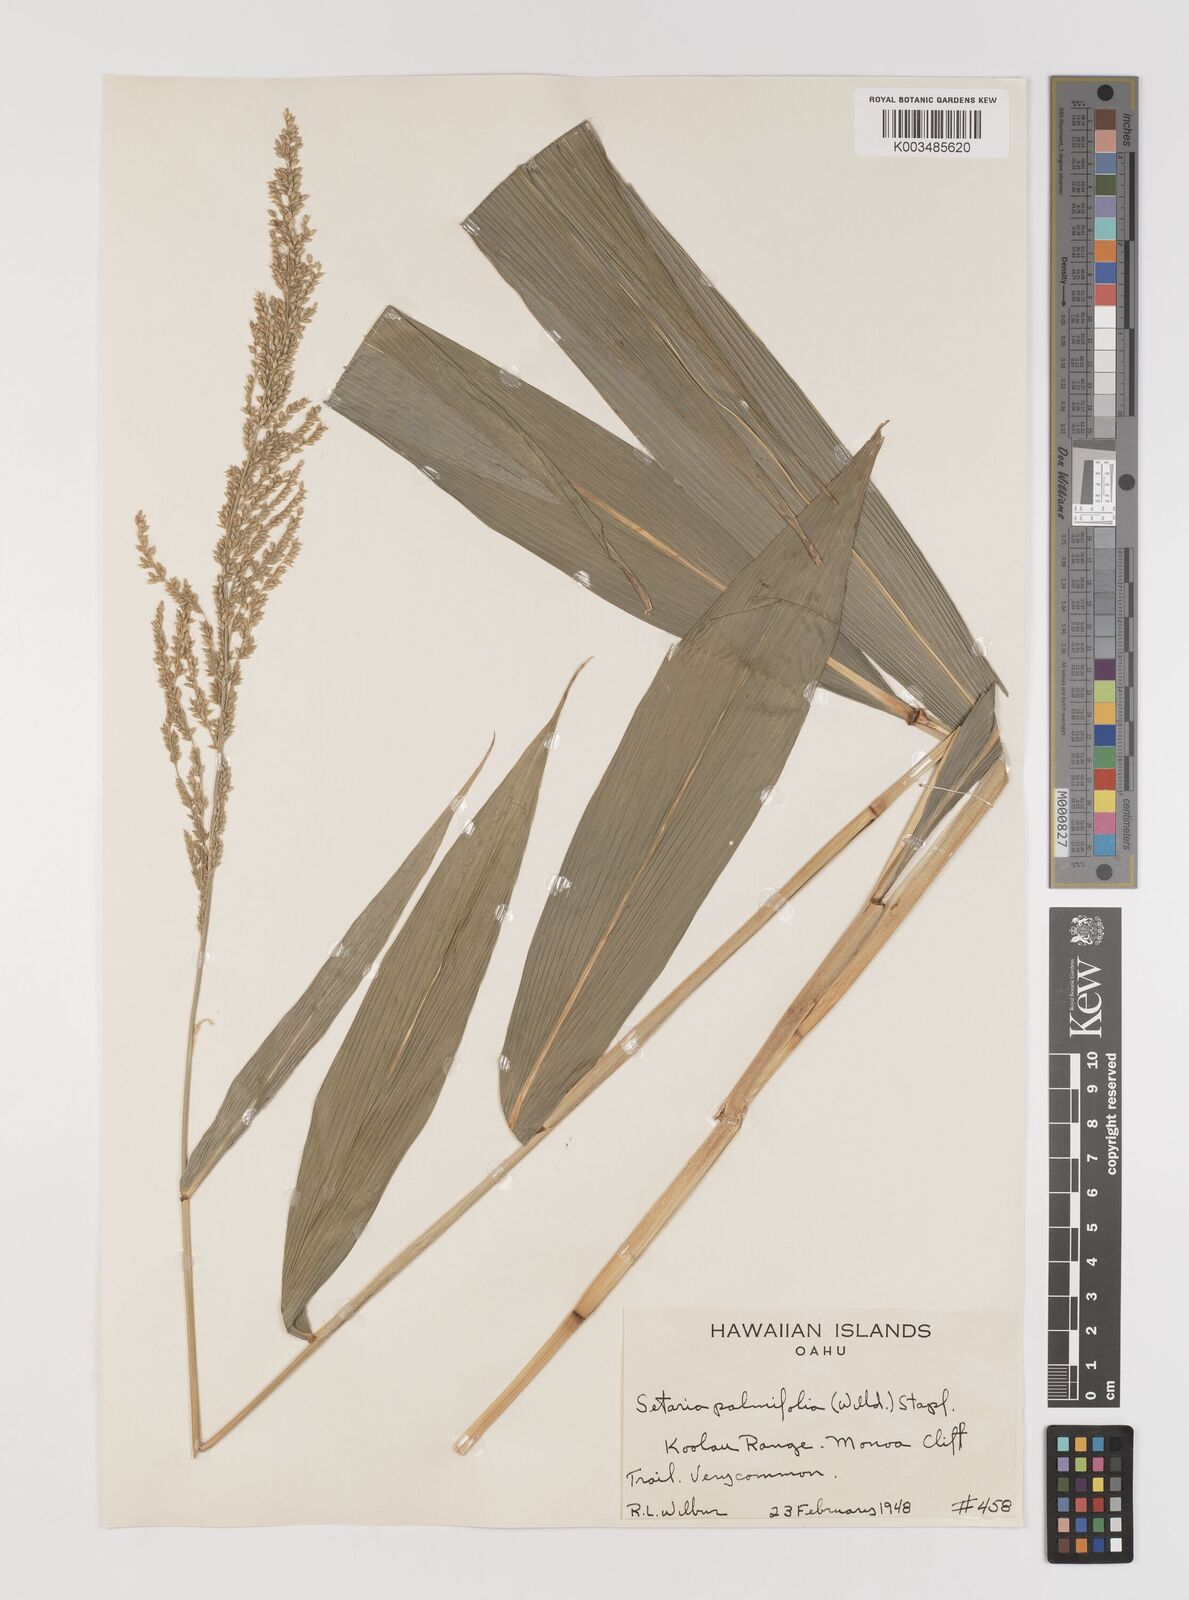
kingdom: Plantae
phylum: Tracheophyta
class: Liliopsida
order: Poales
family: Poaceae
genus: Setaria
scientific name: Setaria palmifolia
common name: Broadleaved bristlegrass
